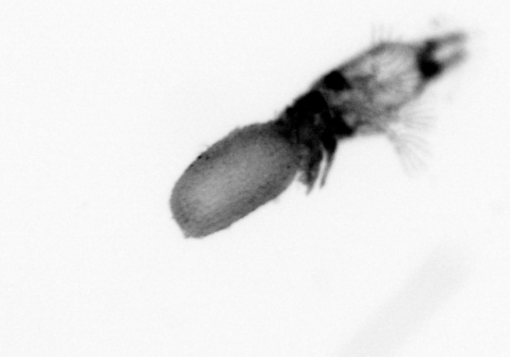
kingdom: Animalia
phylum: Arthropoda
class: Copepoda
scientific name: Copepoda
